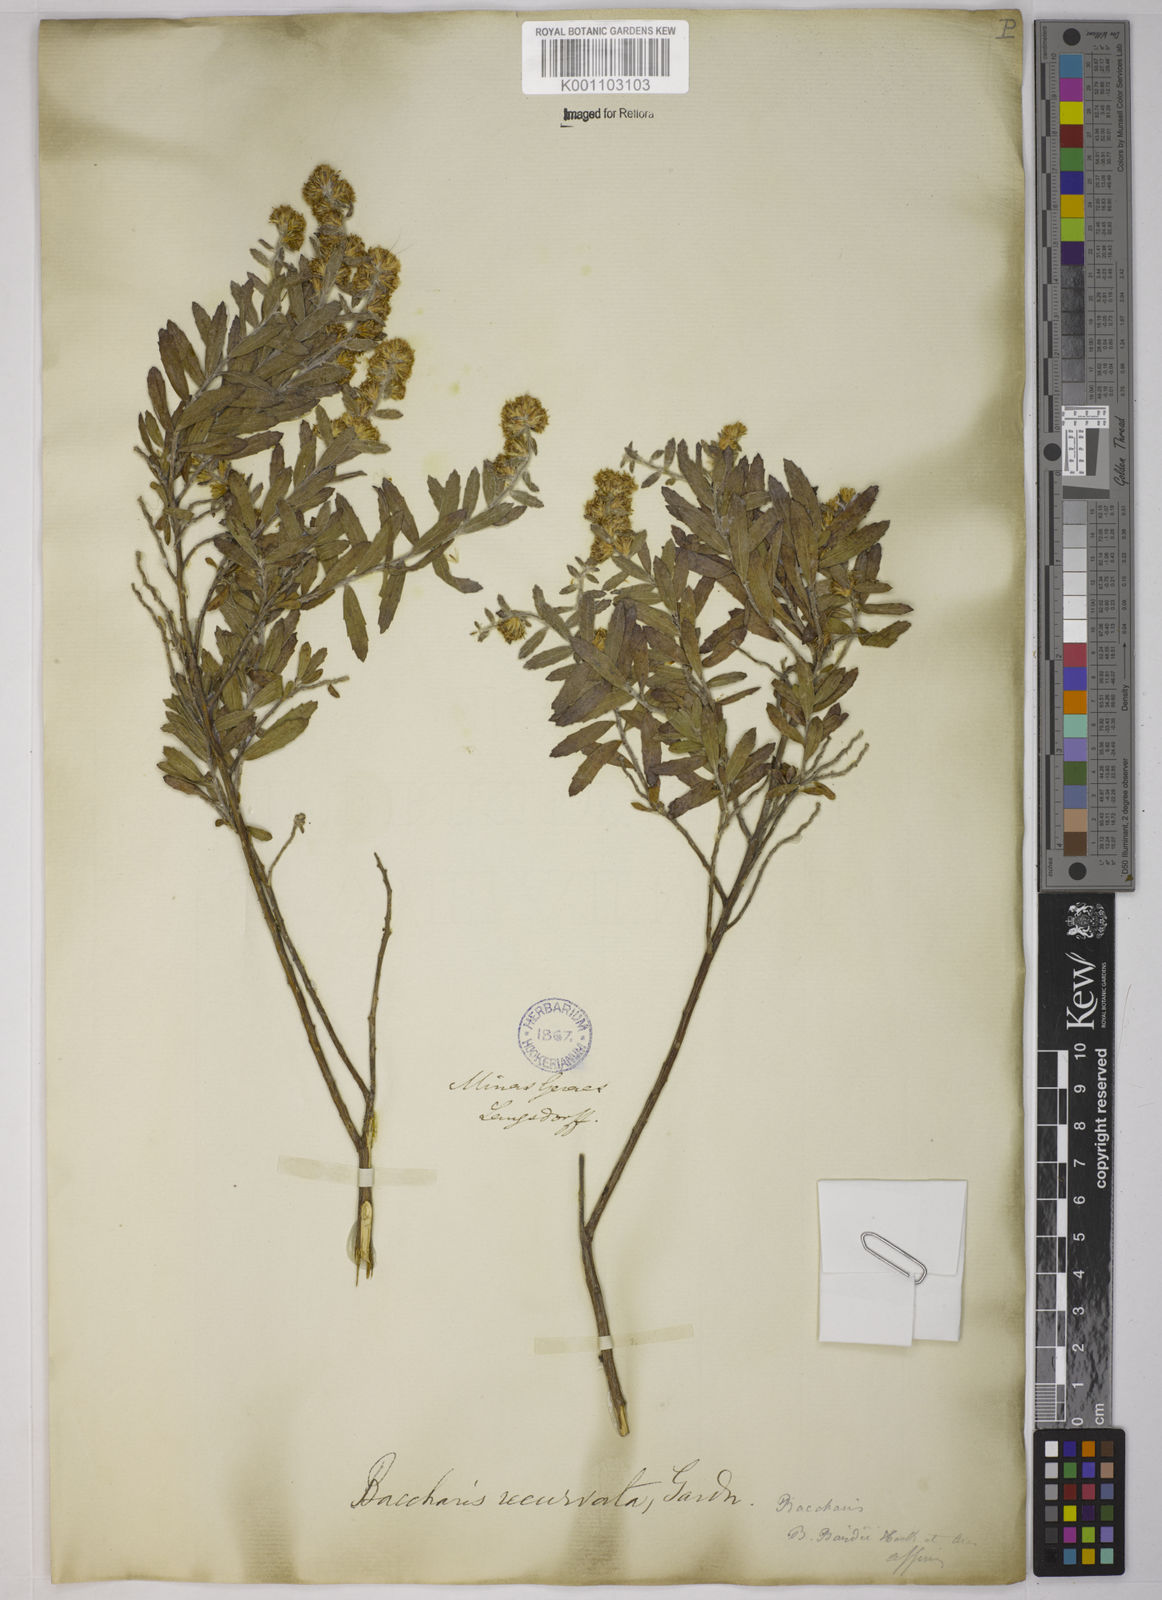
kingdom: Plantae
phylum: Tracheophyta
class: Magnoliopsida
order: Asterales
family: Asteraceae
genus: Baccharis
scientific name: Baccharis caprariifolia
